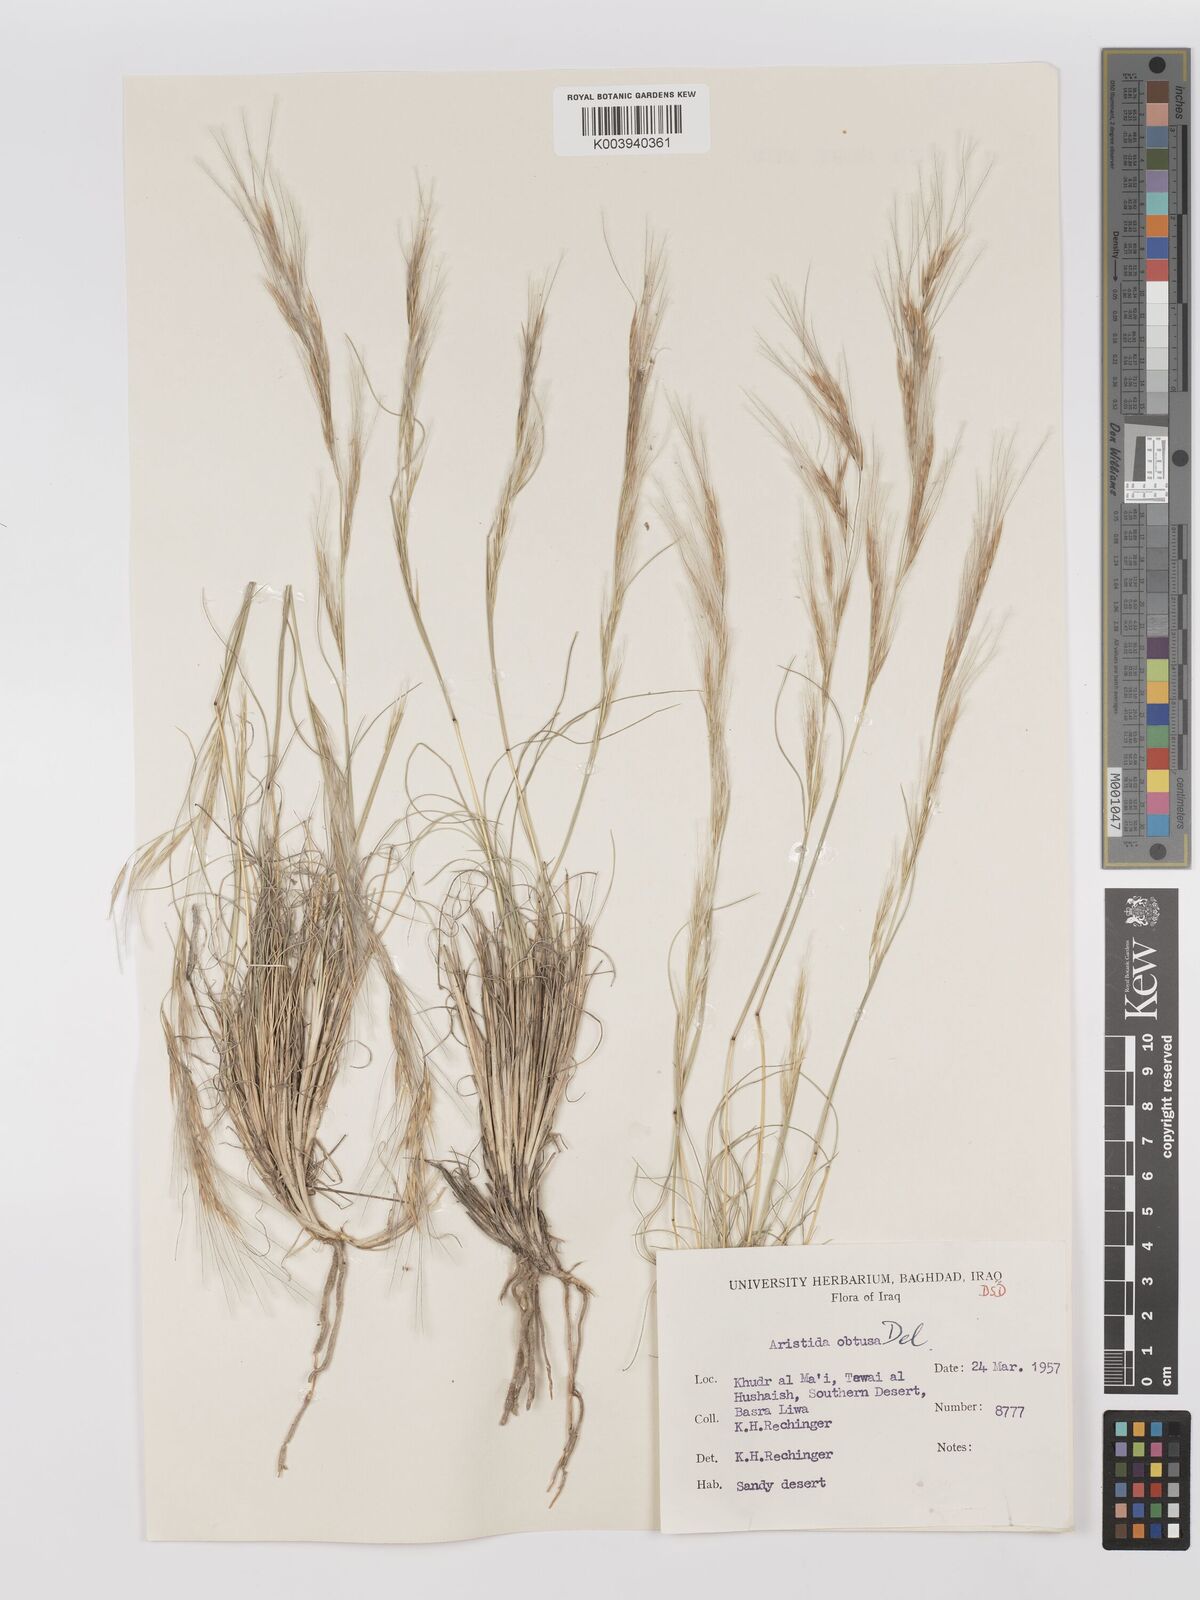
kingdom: Plantae
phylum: Tracheophyta
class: Liliopsida
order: Poales
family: Poaceae
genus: Stipagrostis
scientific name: Stipagrostis obtusa
